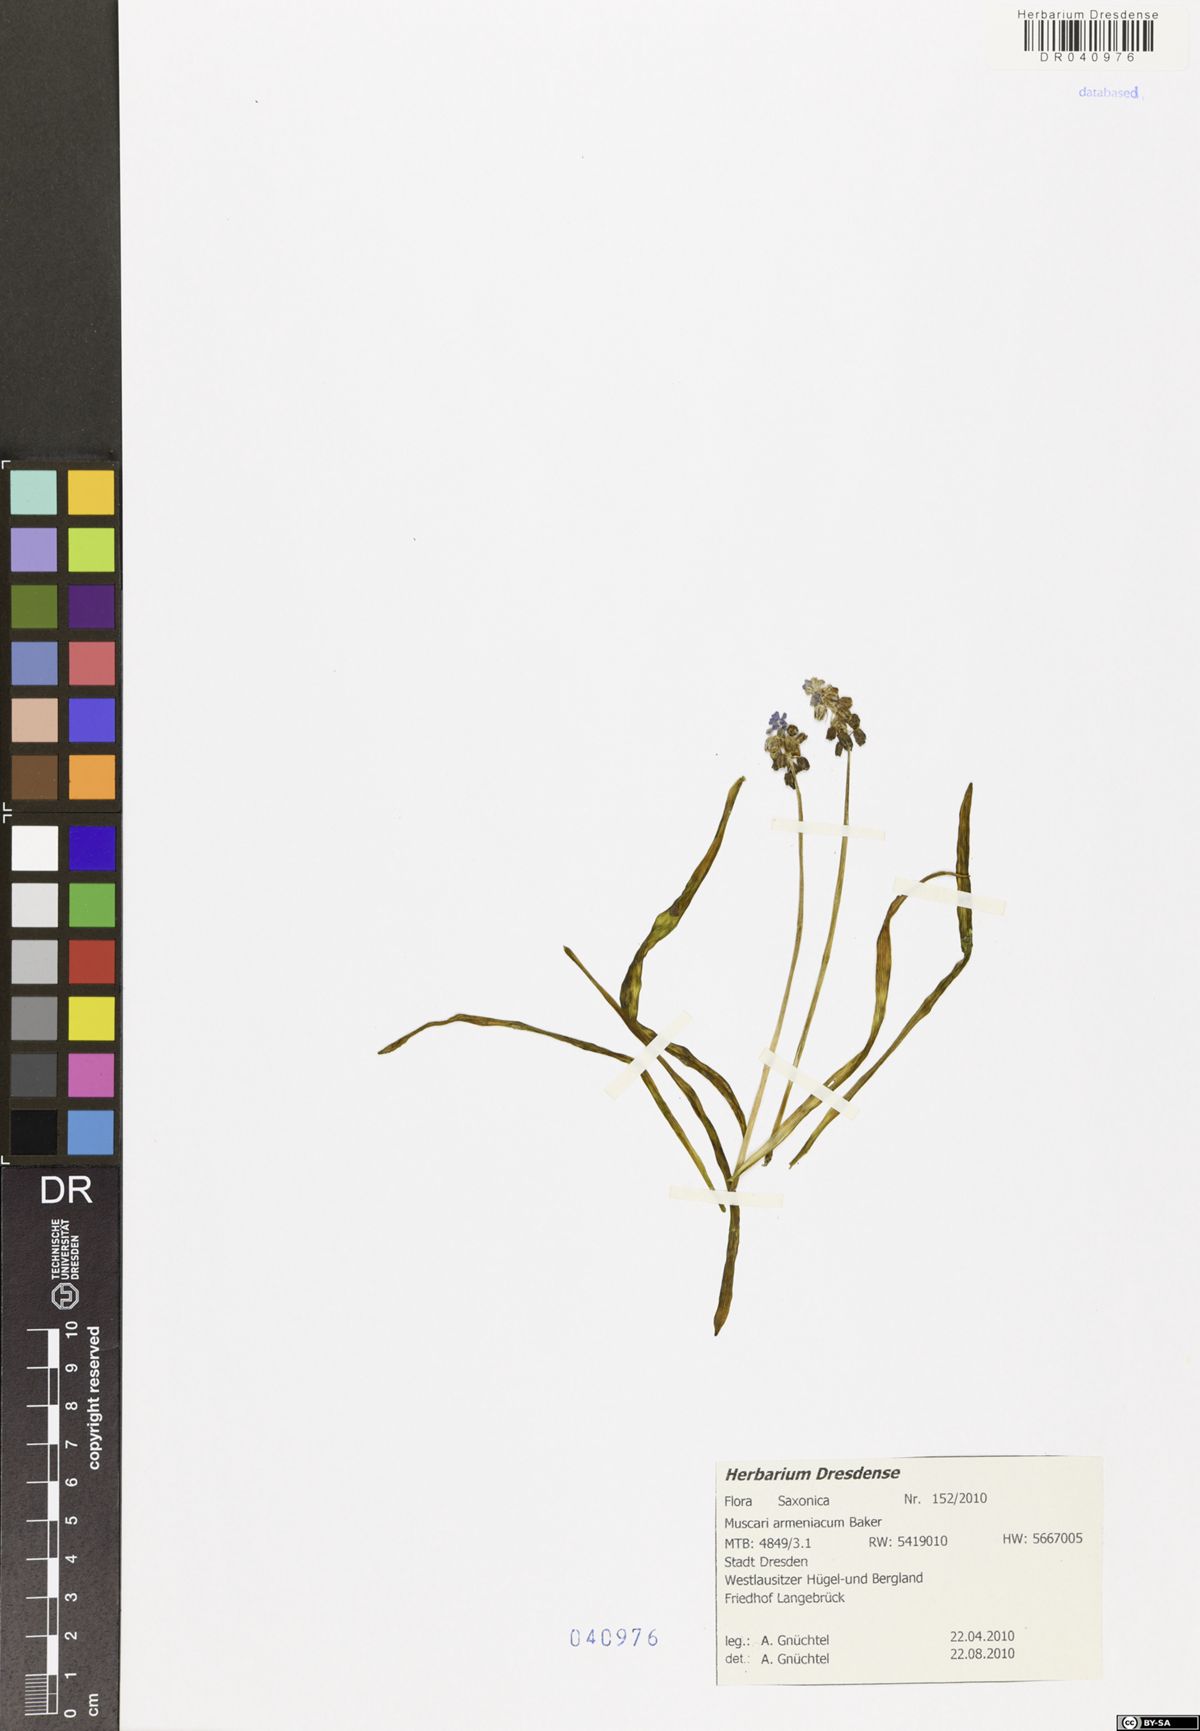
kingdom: Plantae
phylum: Tracheophyta
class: Liliopsida
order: Asparagales
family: Asparagaceae
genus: Muscari
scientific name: Muscari armeniacum
